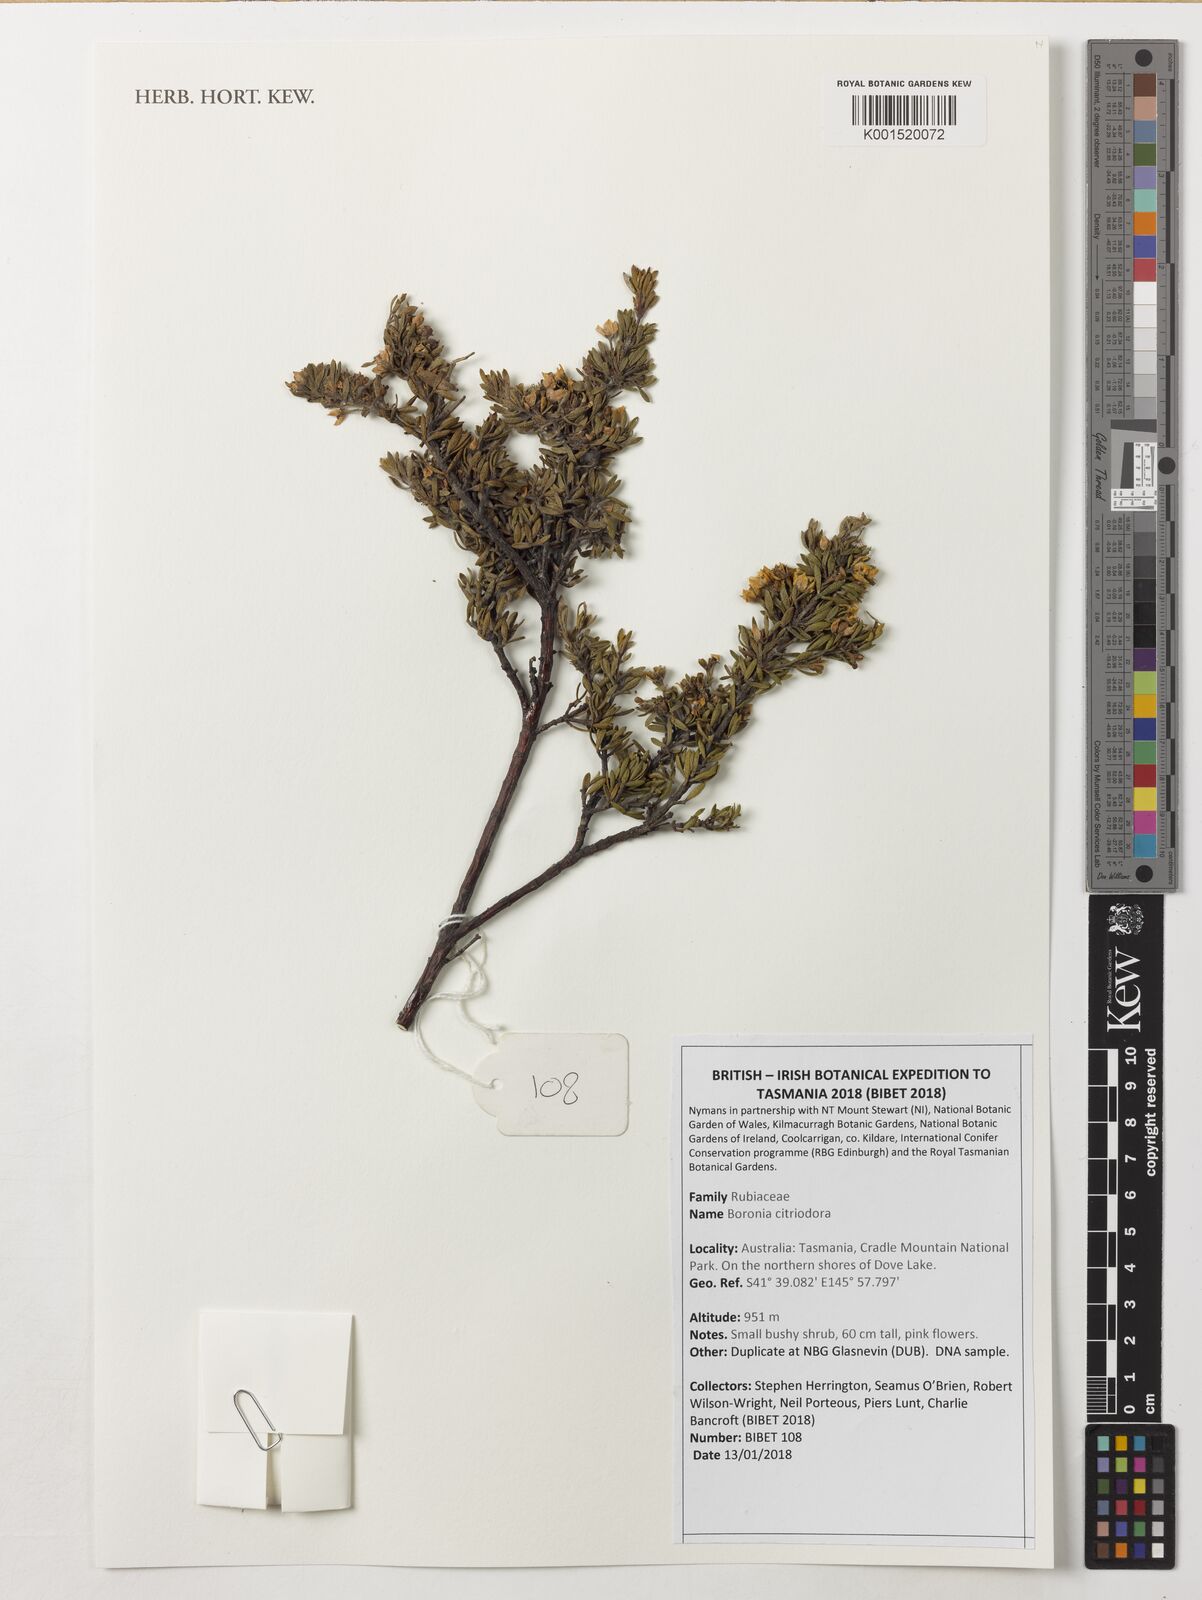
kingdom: Plantae
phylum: Tracheophyta
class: Magnoliopsida
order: Sapindales
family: Rutaceae
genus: Boronia
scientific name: Boronia citriodora
